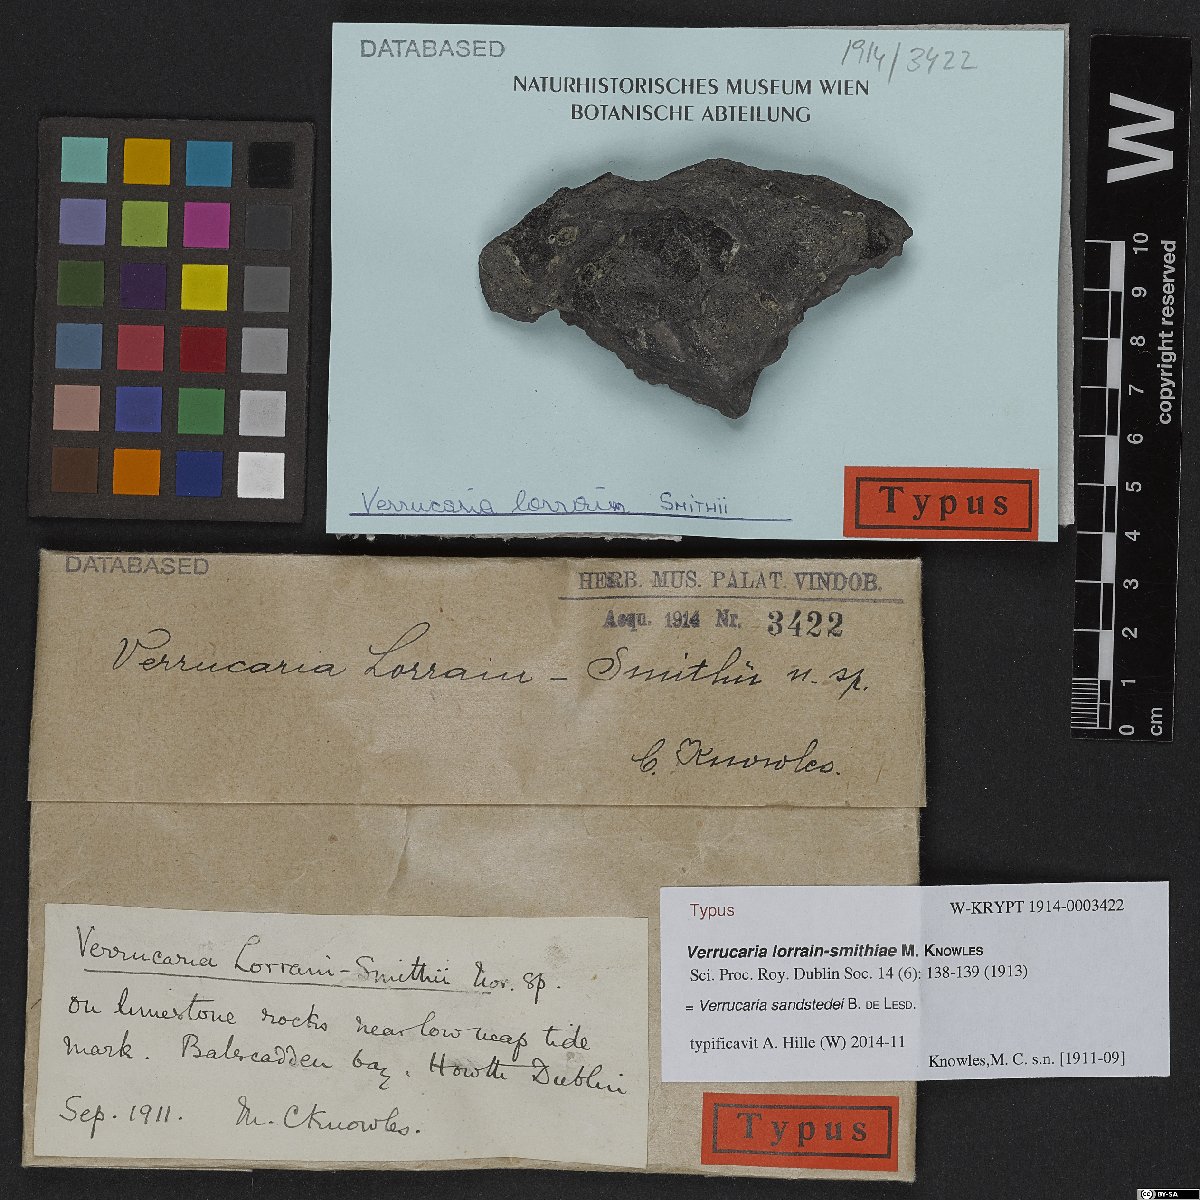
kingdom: Fungi
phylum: Ascomycota
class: Eurotiomycetes
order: Verrucariales
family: Verrucariaceae
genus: Verrucaria
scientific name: Verrucaria sandstedei
